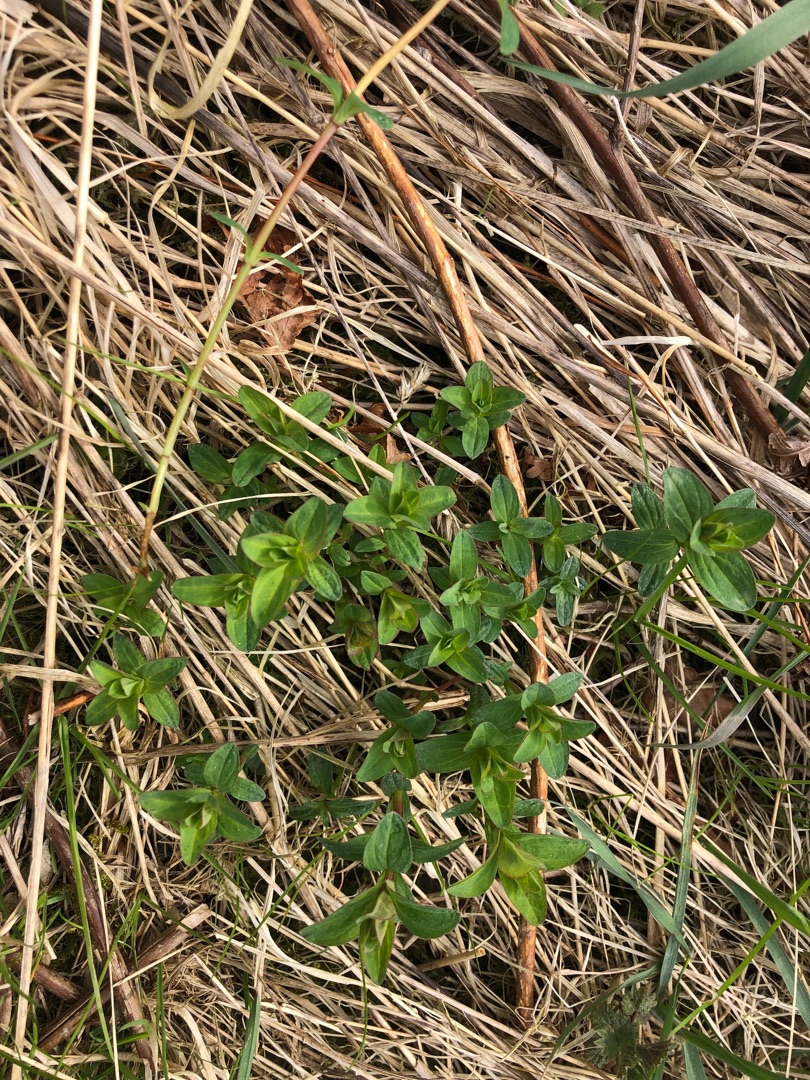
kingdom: Plantae
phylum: Tracheophyta
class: Magnoliopsida
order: Malpighiales
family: Hypericaceae
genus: Hypericum
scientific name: Hypericum maculatum
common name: Kantet perikon
